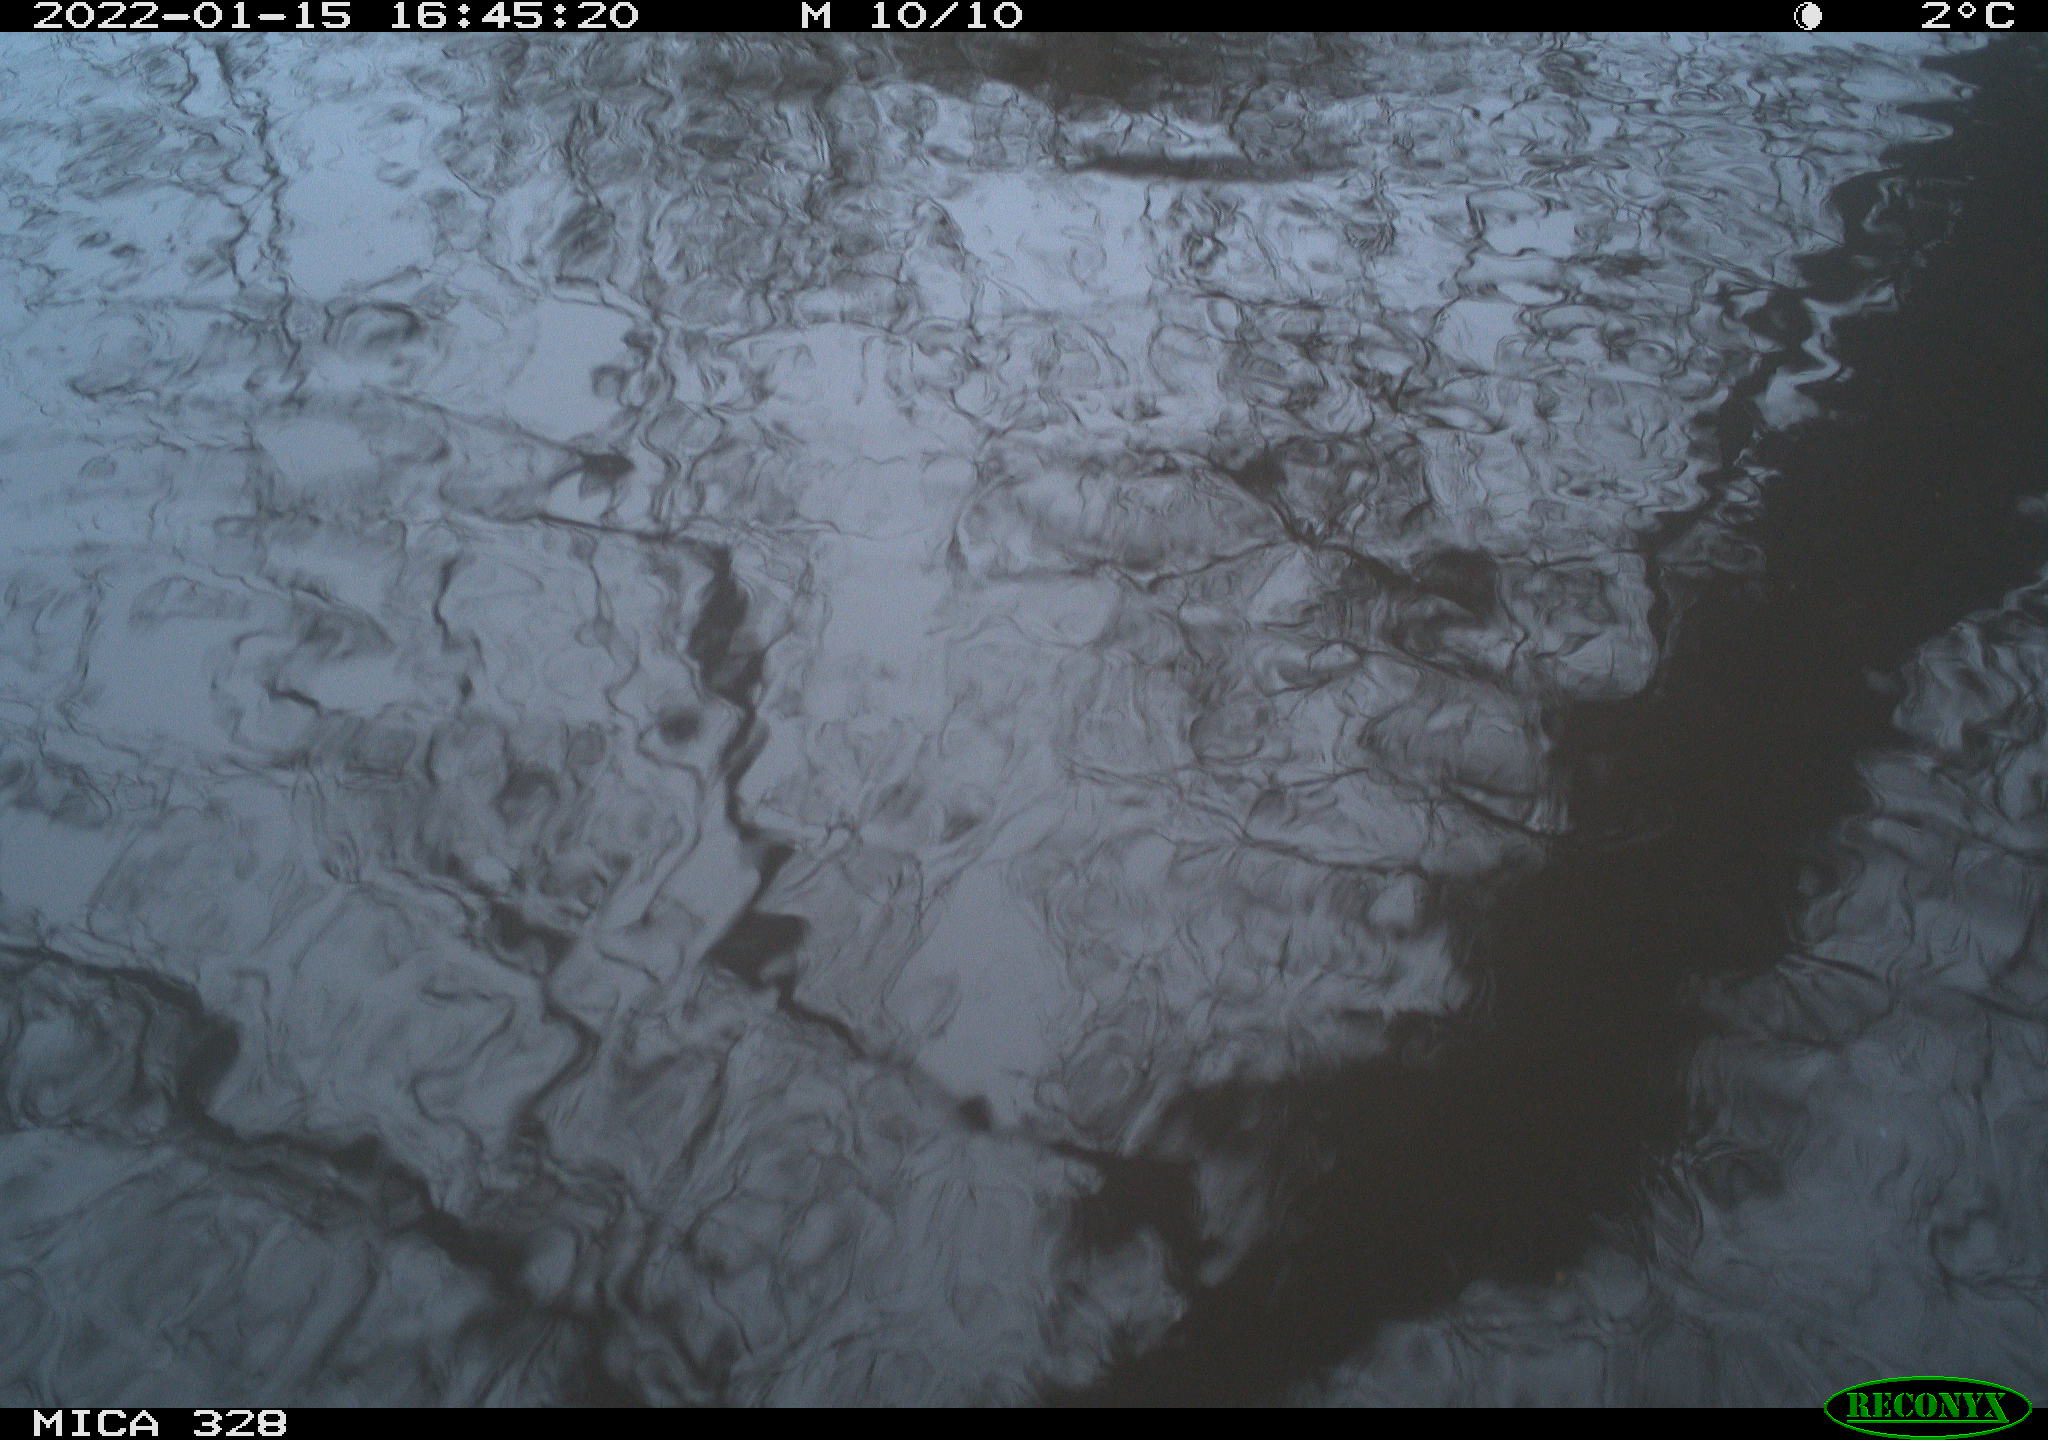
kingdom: Animalia
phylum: Chordata
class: Mammalia
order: Rodentia
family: Cricetidae
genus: Ondatra
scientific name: Ondatra zibethicus
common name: Muskrat
